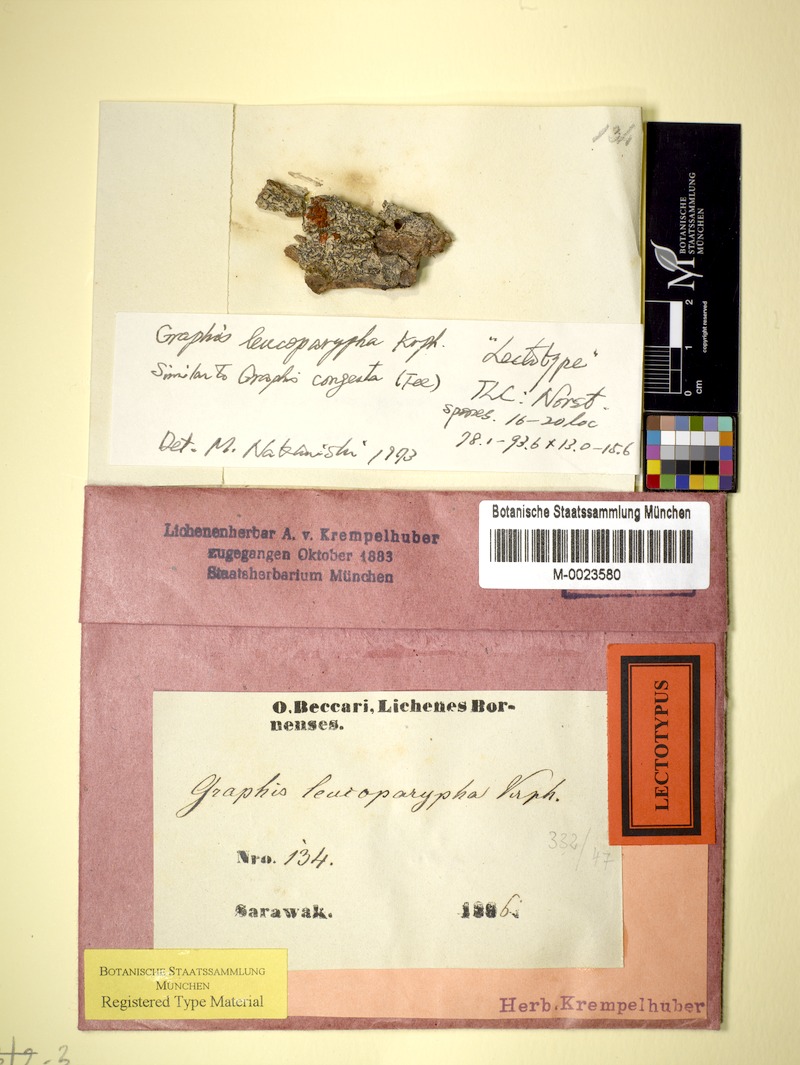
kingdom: Fungi
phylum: Ascomycota
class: Lecanoromycetes
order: Ostropales
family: Graphidaceae
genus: Allographa
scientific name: Allographa marginata
